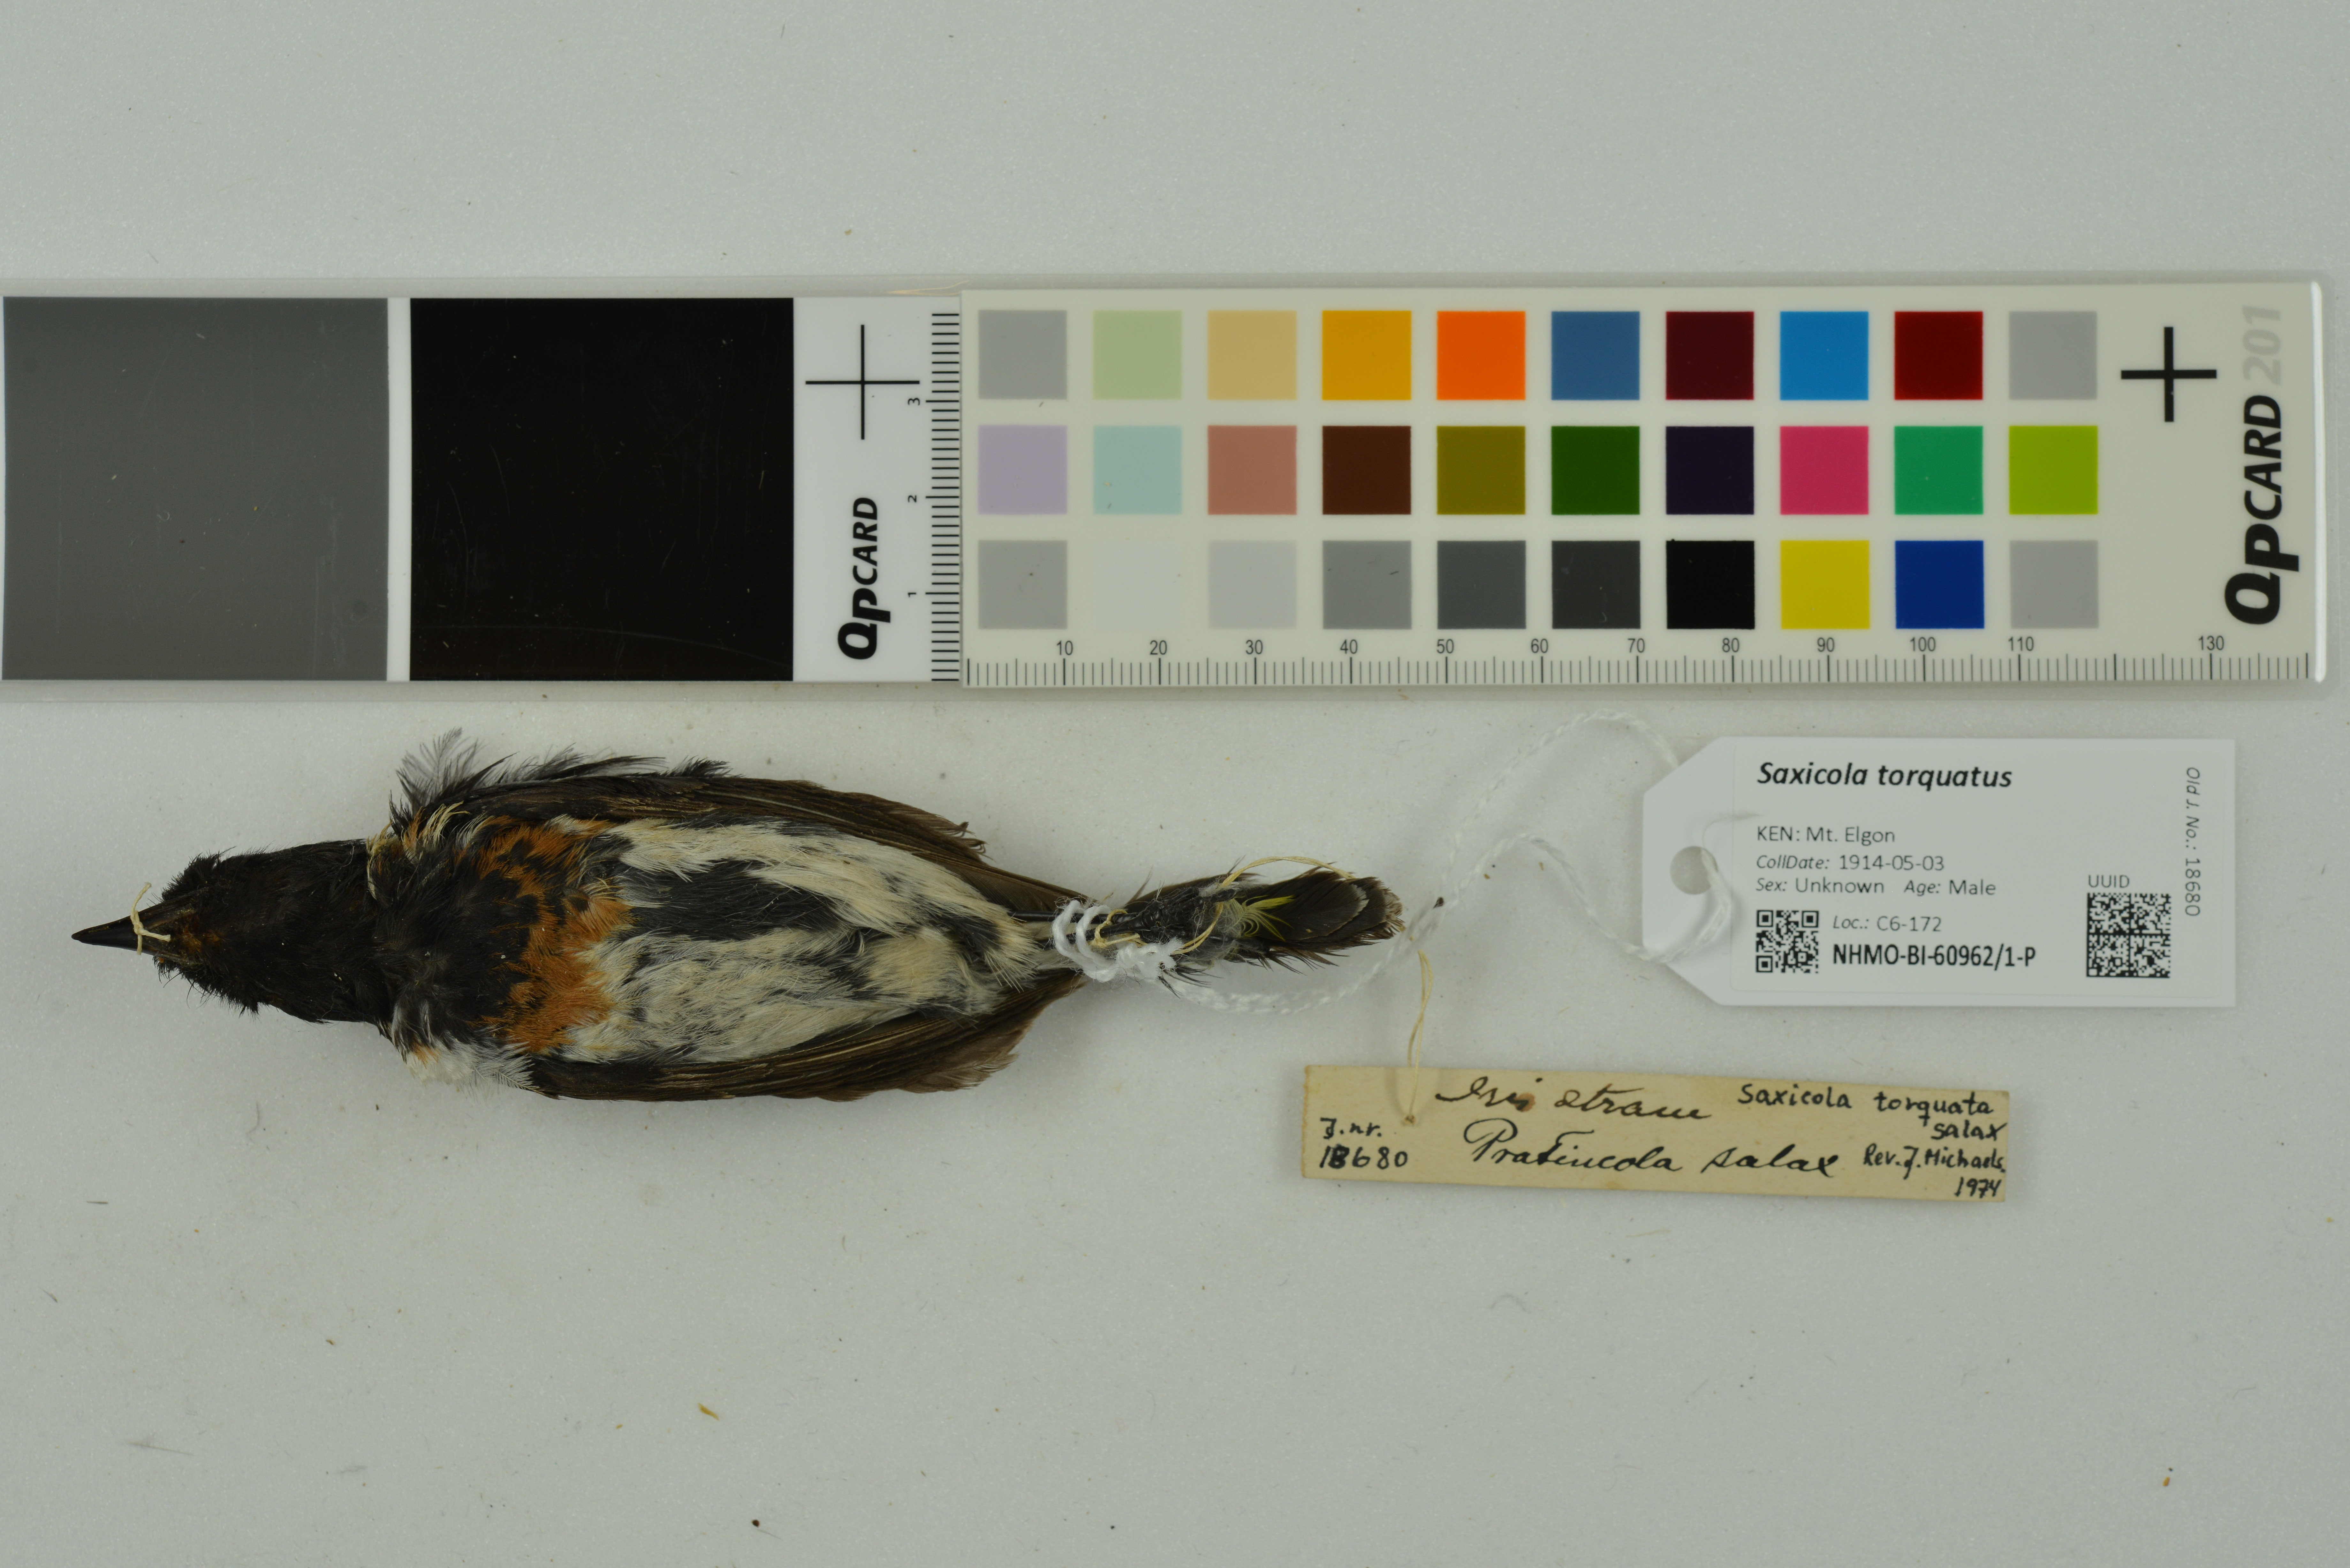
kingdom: Animalia
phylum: Chordata
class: Aves
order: Passeriformes
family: Muscicapidae
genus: Saxicola
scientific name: Saxicola torquatus
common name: African stonechat
